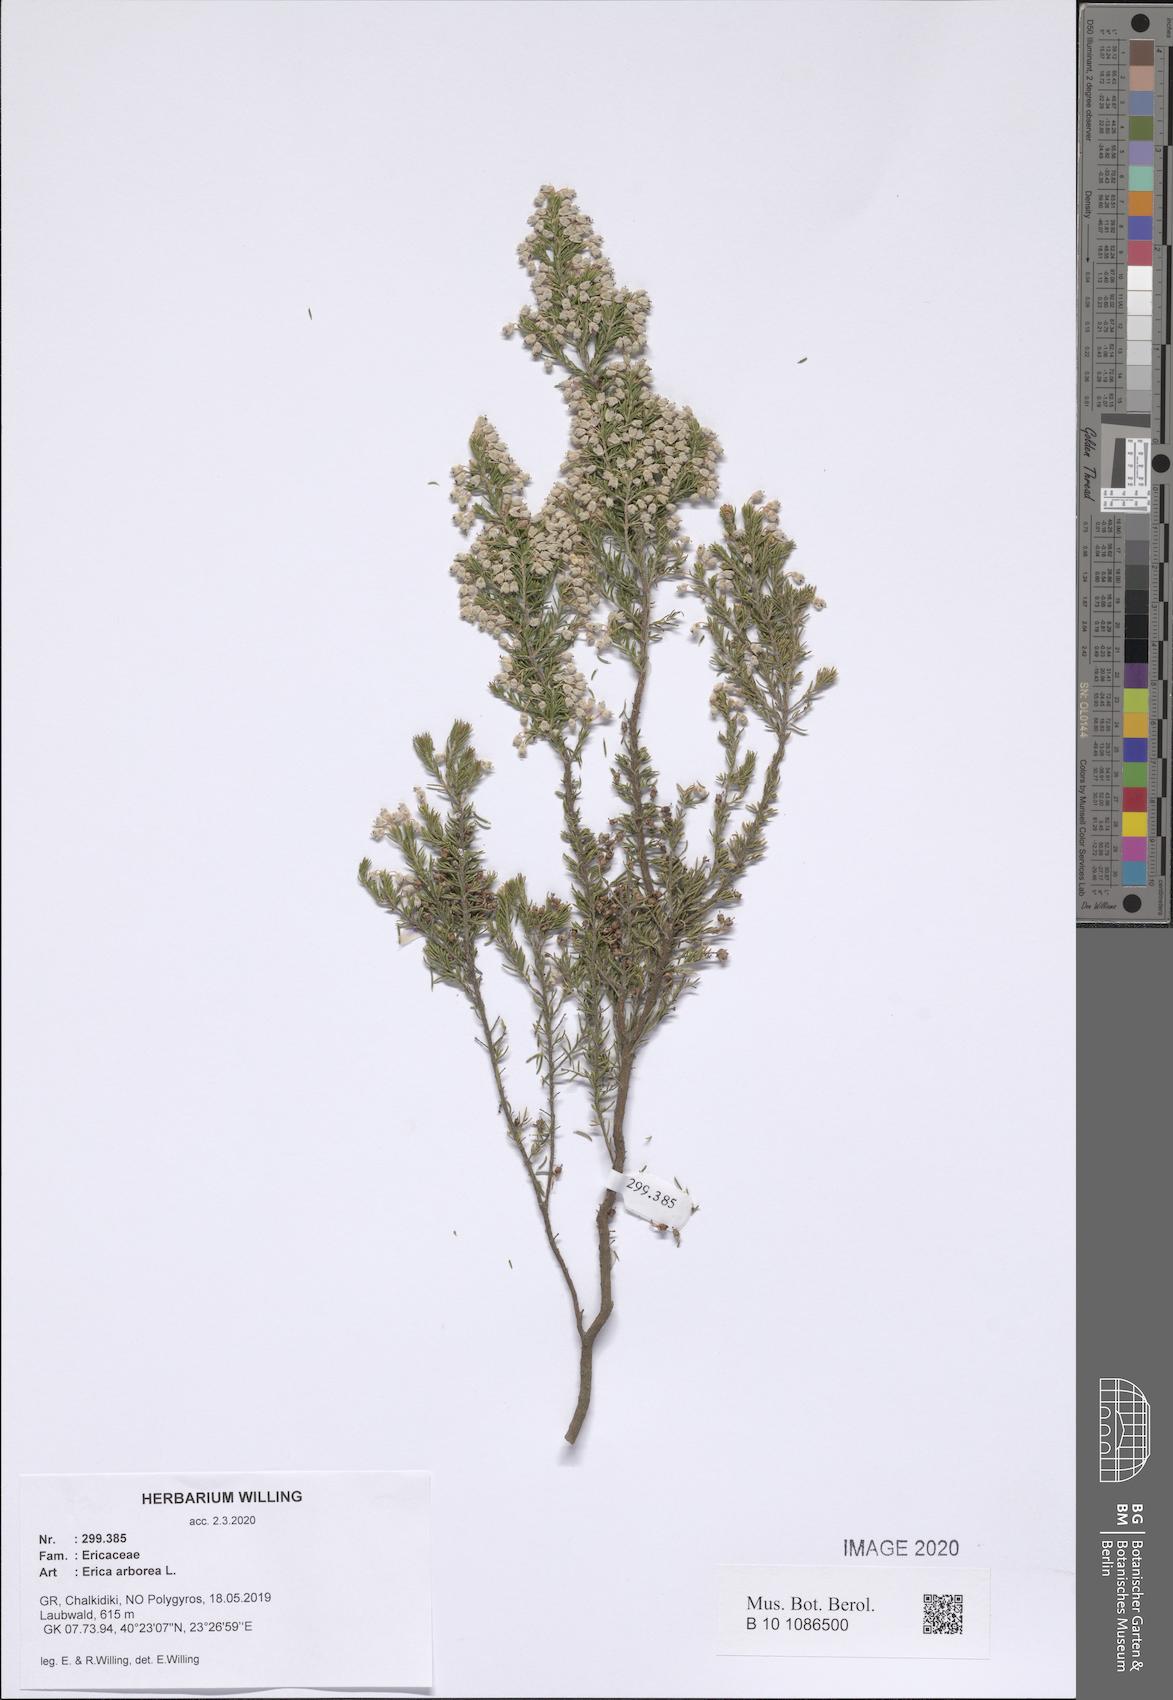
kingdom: Plantae
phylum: Tracheophyta
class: Magnoliopsida
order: Ericales
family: Ericaceae
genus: Erica
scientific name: Erica arborea
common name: Tree heath
